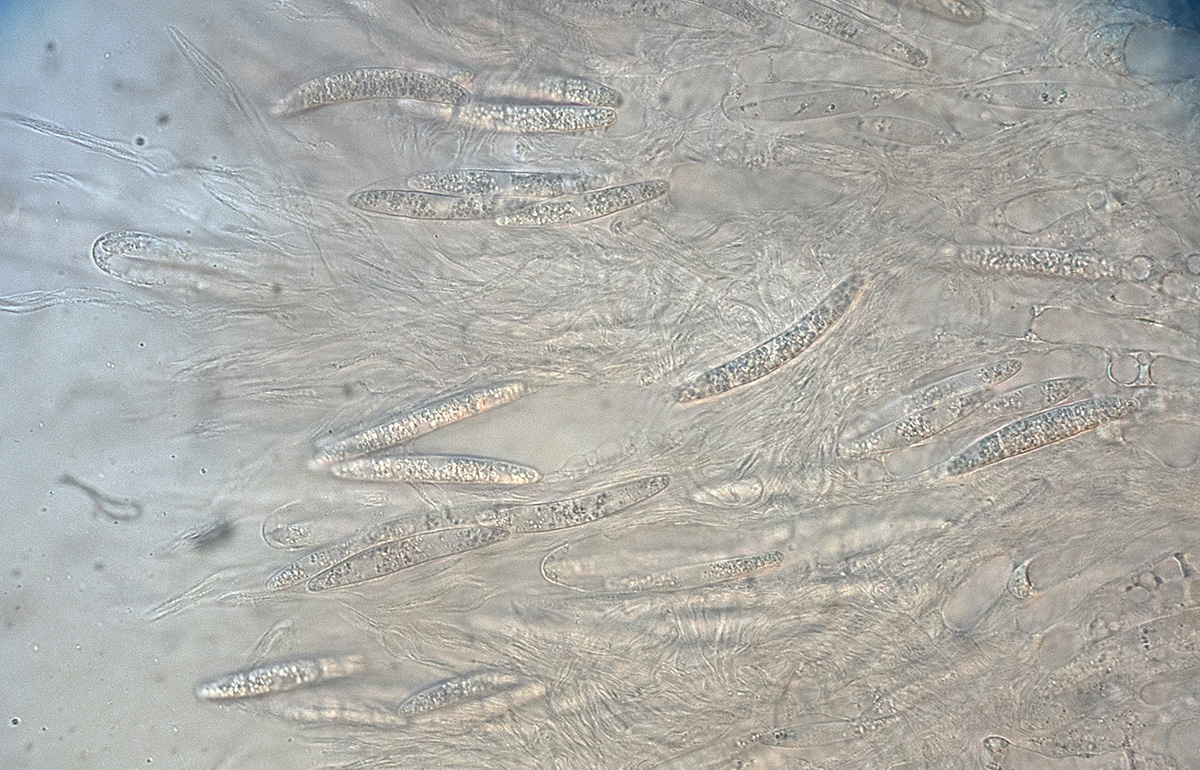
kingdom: Fungi
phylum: Ascomycota
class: Sordariomycetes
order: Sordariales
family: Nitschkeaceae
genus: Bertia
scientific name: Bertia
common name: morbærkerne
